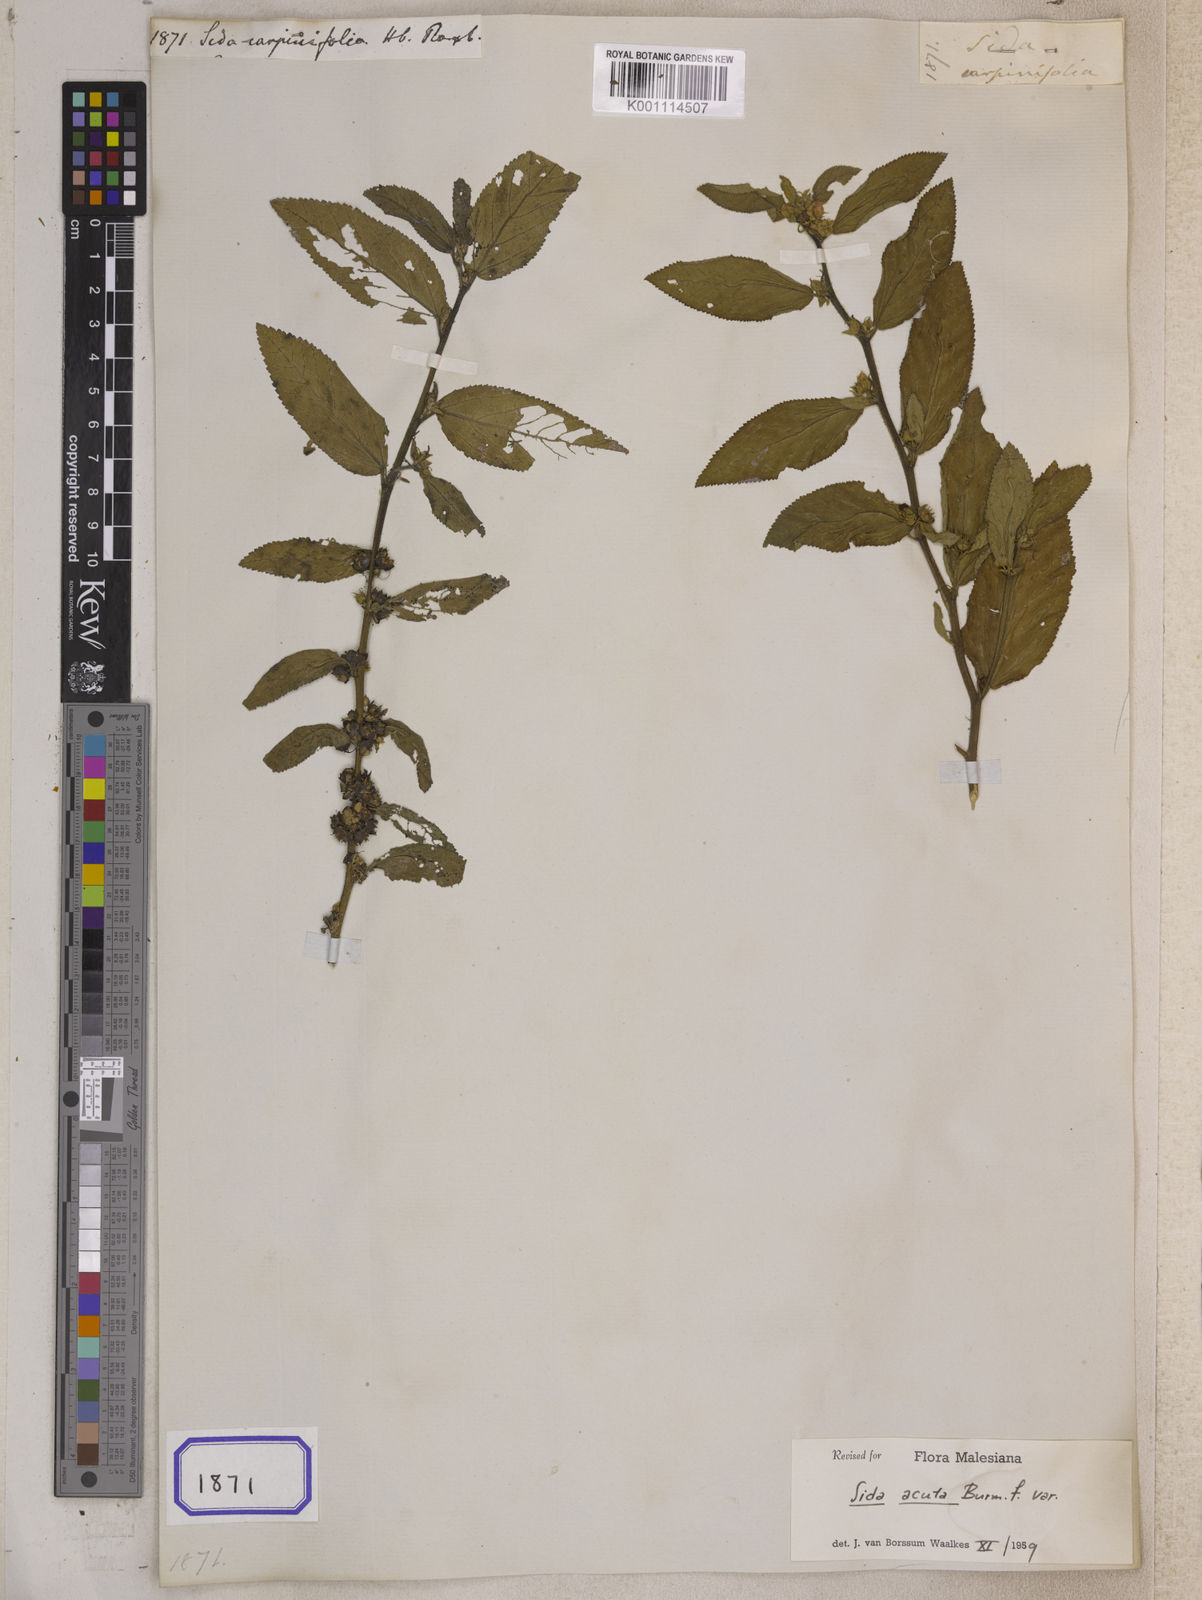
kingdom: Plantae
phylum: Tracheophyta
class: Magnoliopsida
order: Malvales
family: Malvaceae
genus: Sida
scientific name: Sida planicaulis
